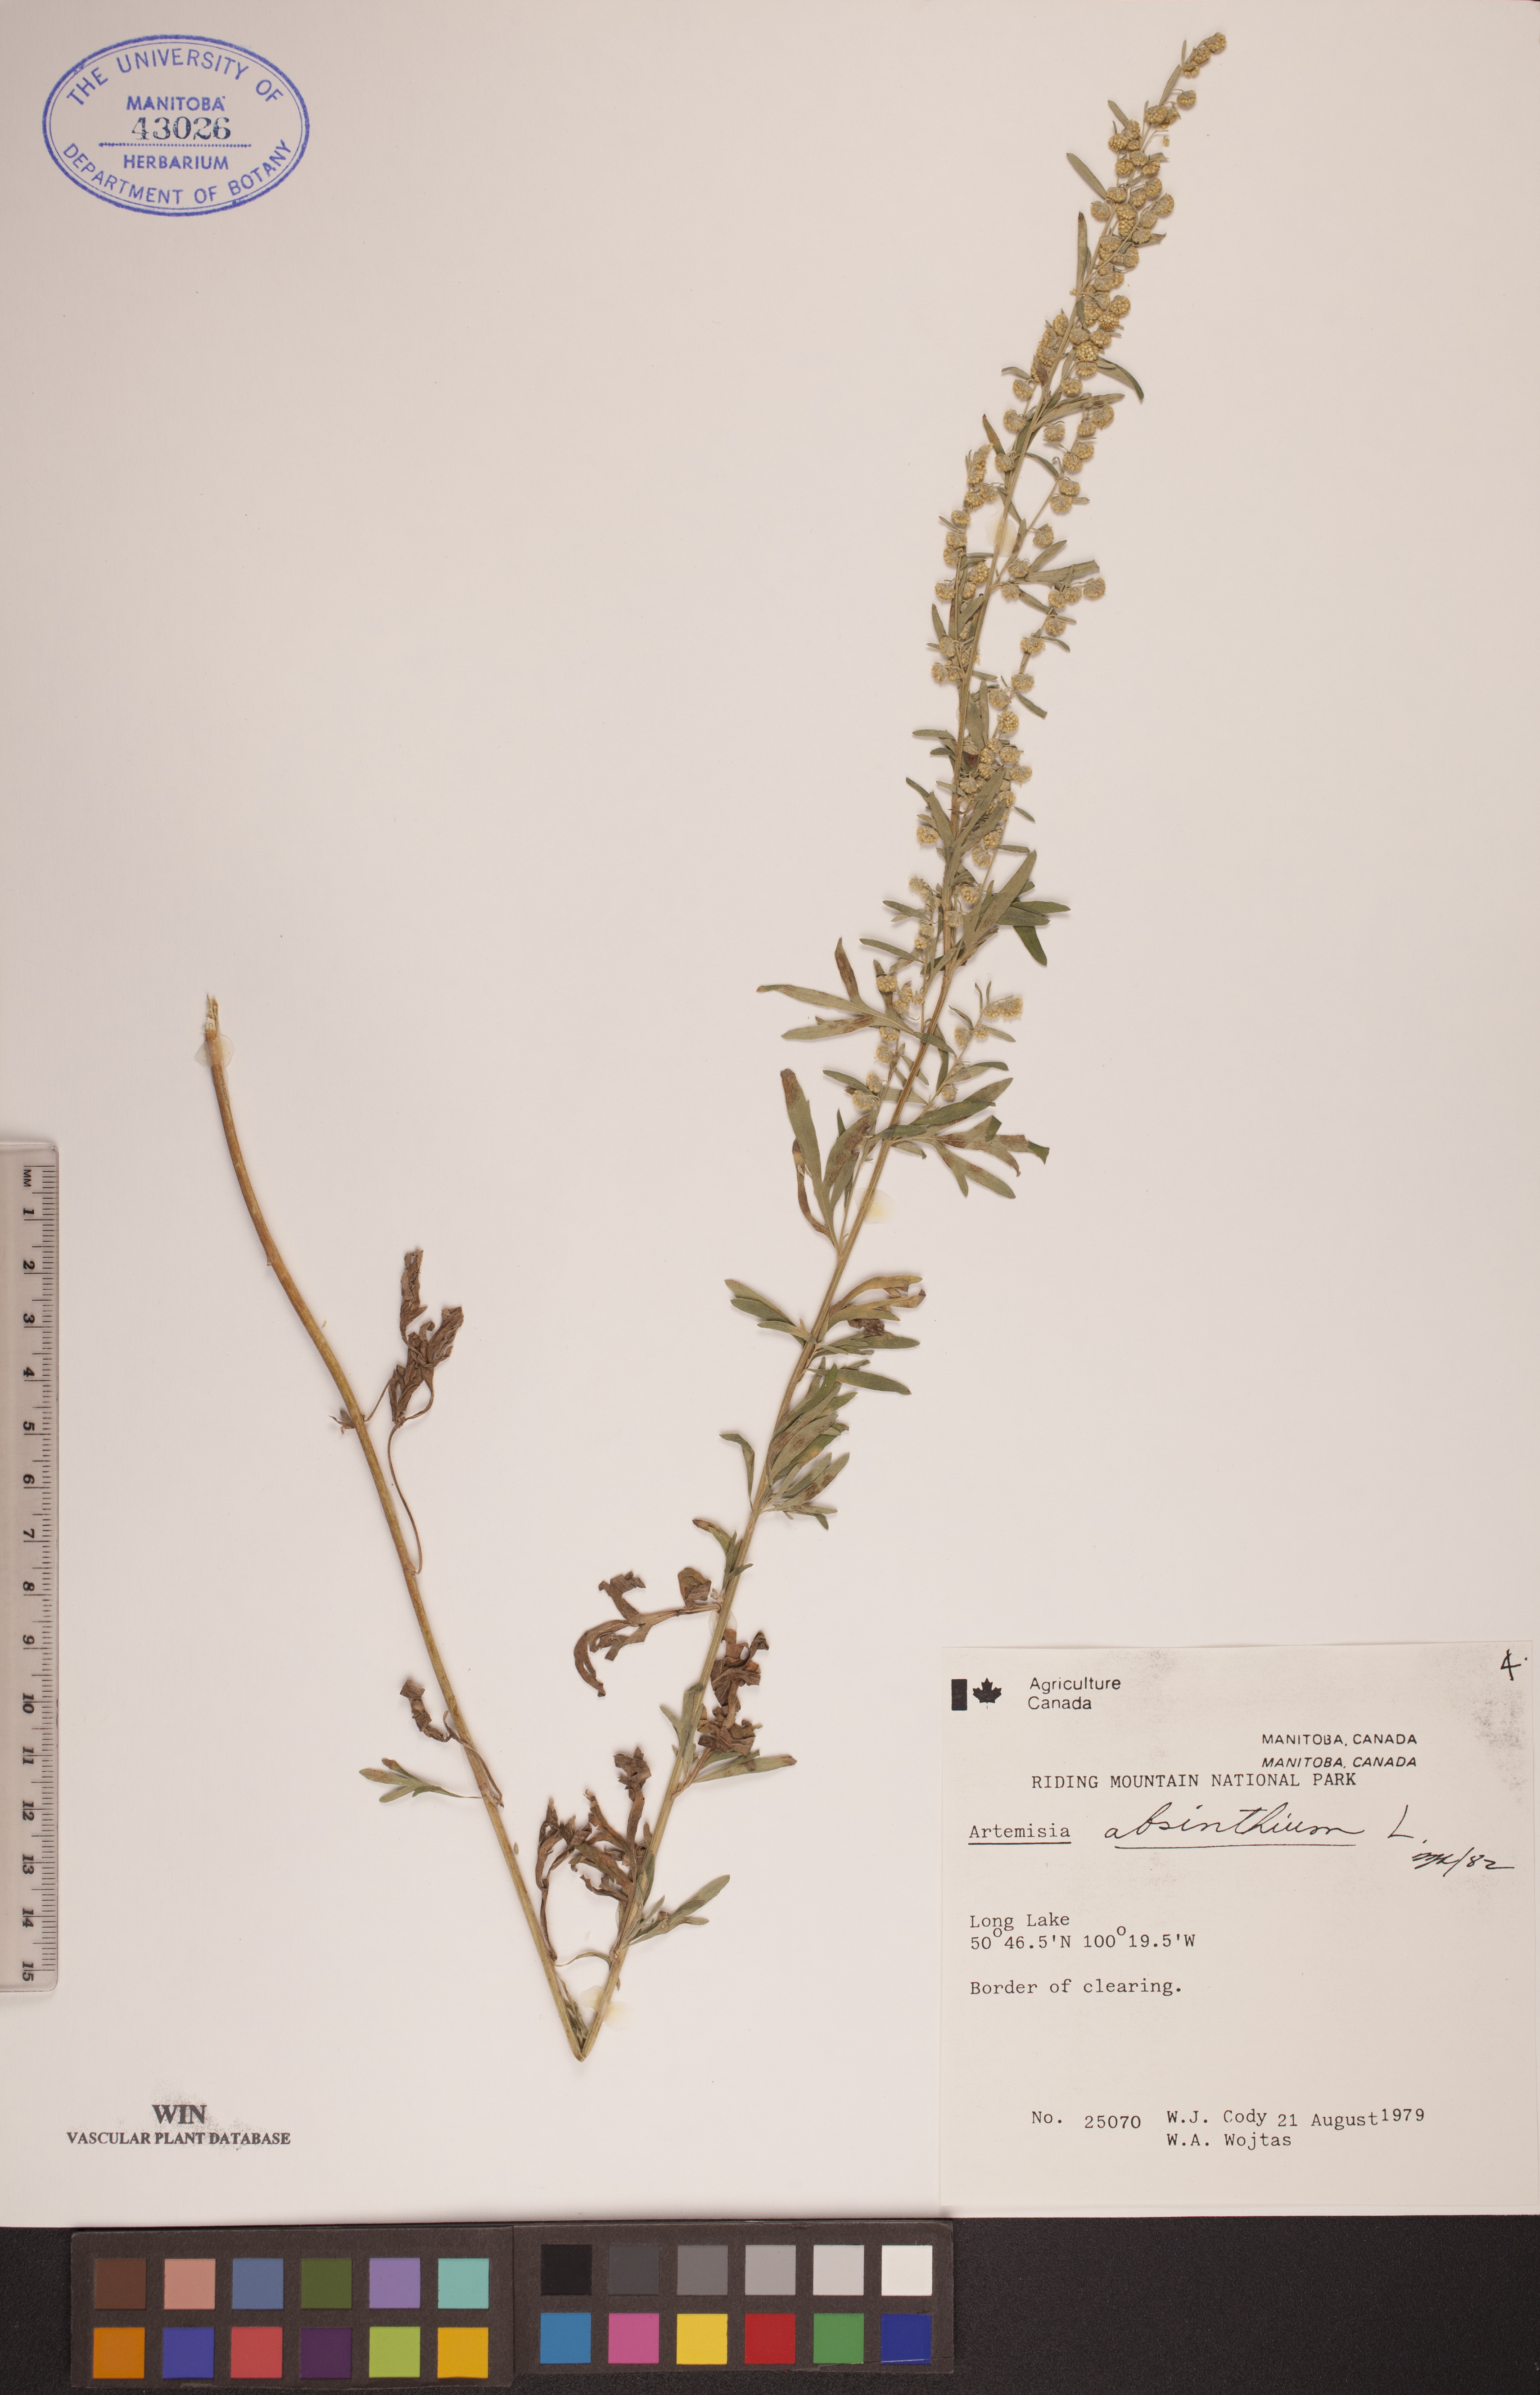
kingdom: Plantae
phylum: Tracheophyta
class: Magnoliopsida
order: Asterales
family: Asteraceae
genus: Artemisia
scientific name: Artemisia absinthium
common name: Wormwood
